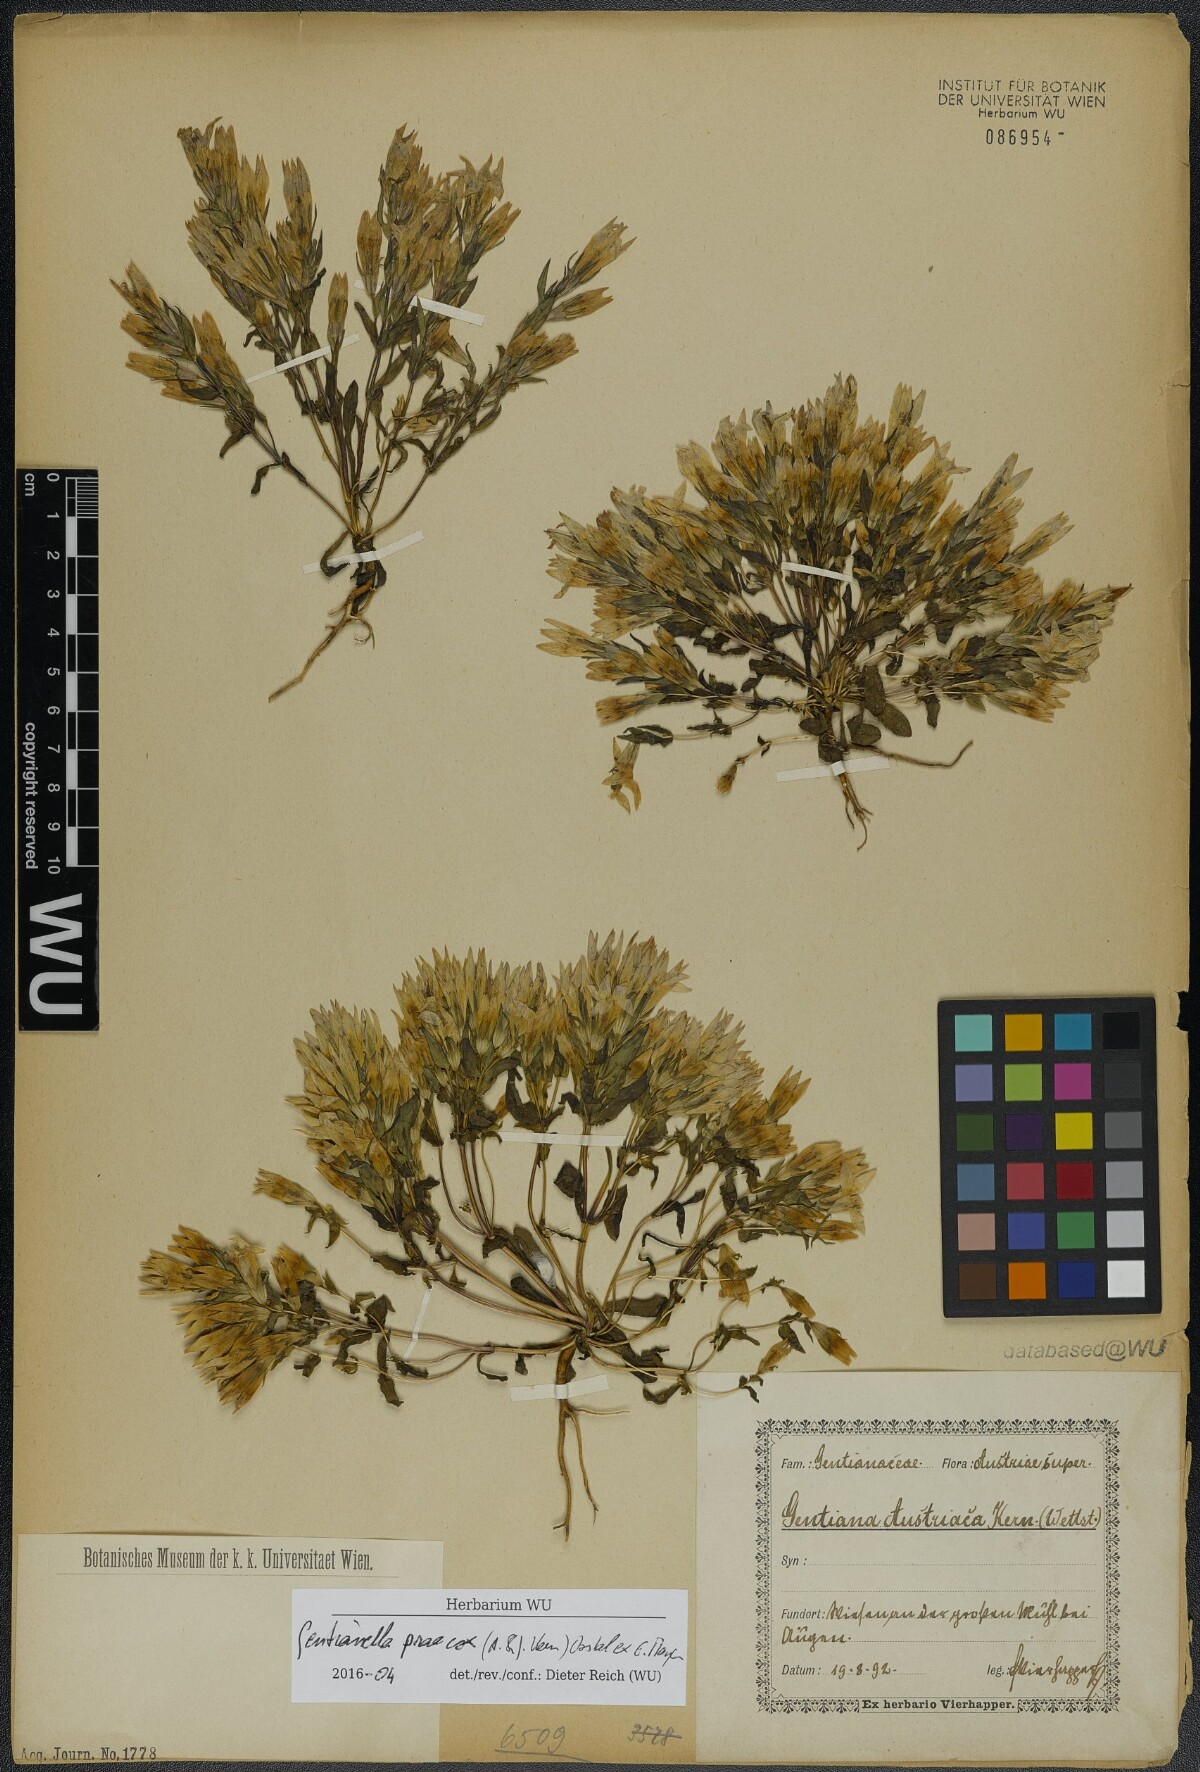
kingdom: Plantae
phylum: Tracheophyta
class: Magnoliopsida
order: Gentianales
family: Gentianaceae
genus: Gentianella
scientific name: Gentianella praecox
